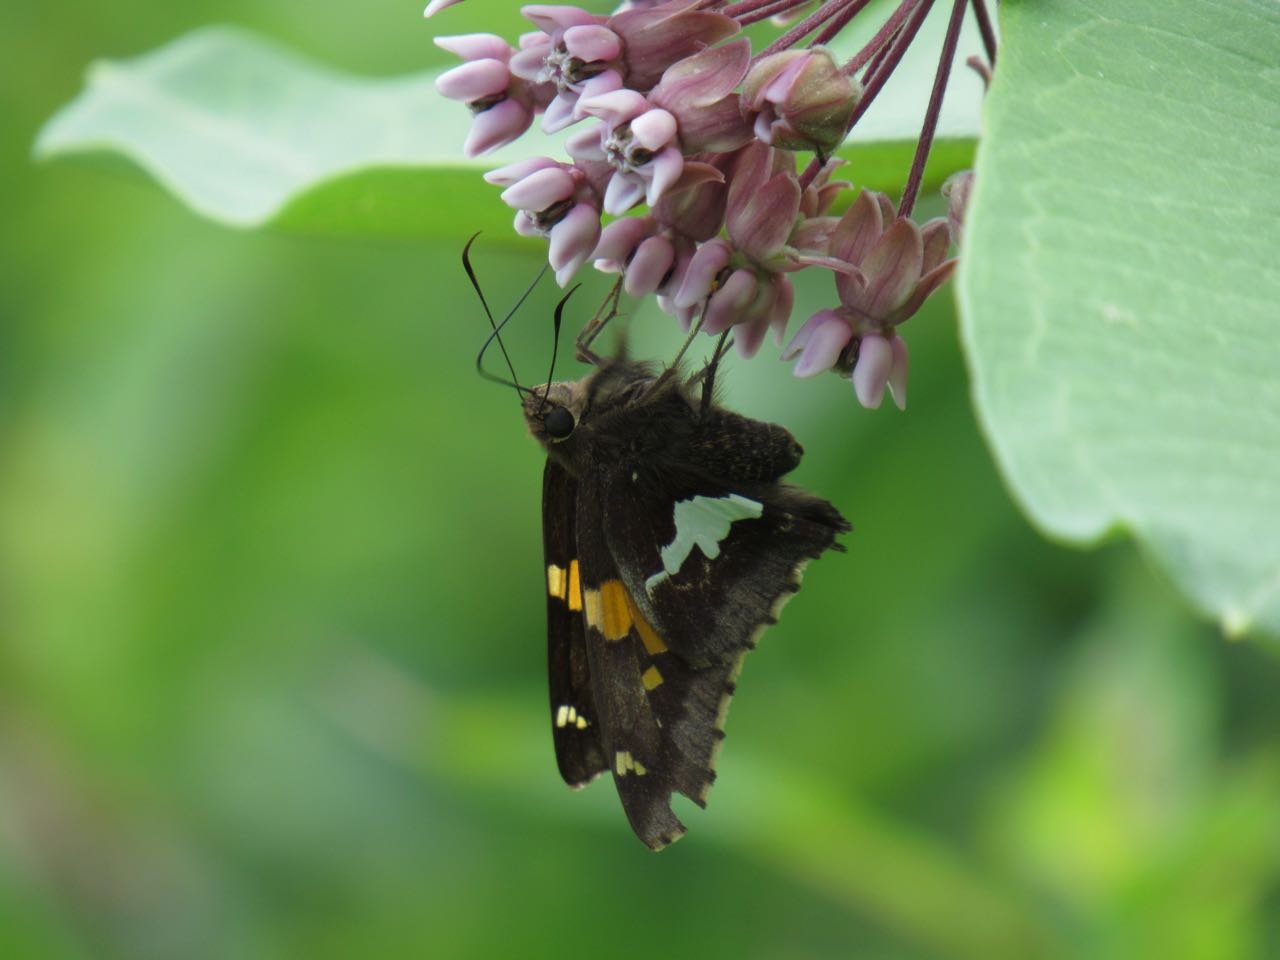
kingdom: Animalia
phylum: Arthropoda
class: Insecta
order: Lepidoptera
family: Hesperiidae
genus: Epargyreus
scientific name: Epargyreus clarus
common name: Silver-spotted Skipper
